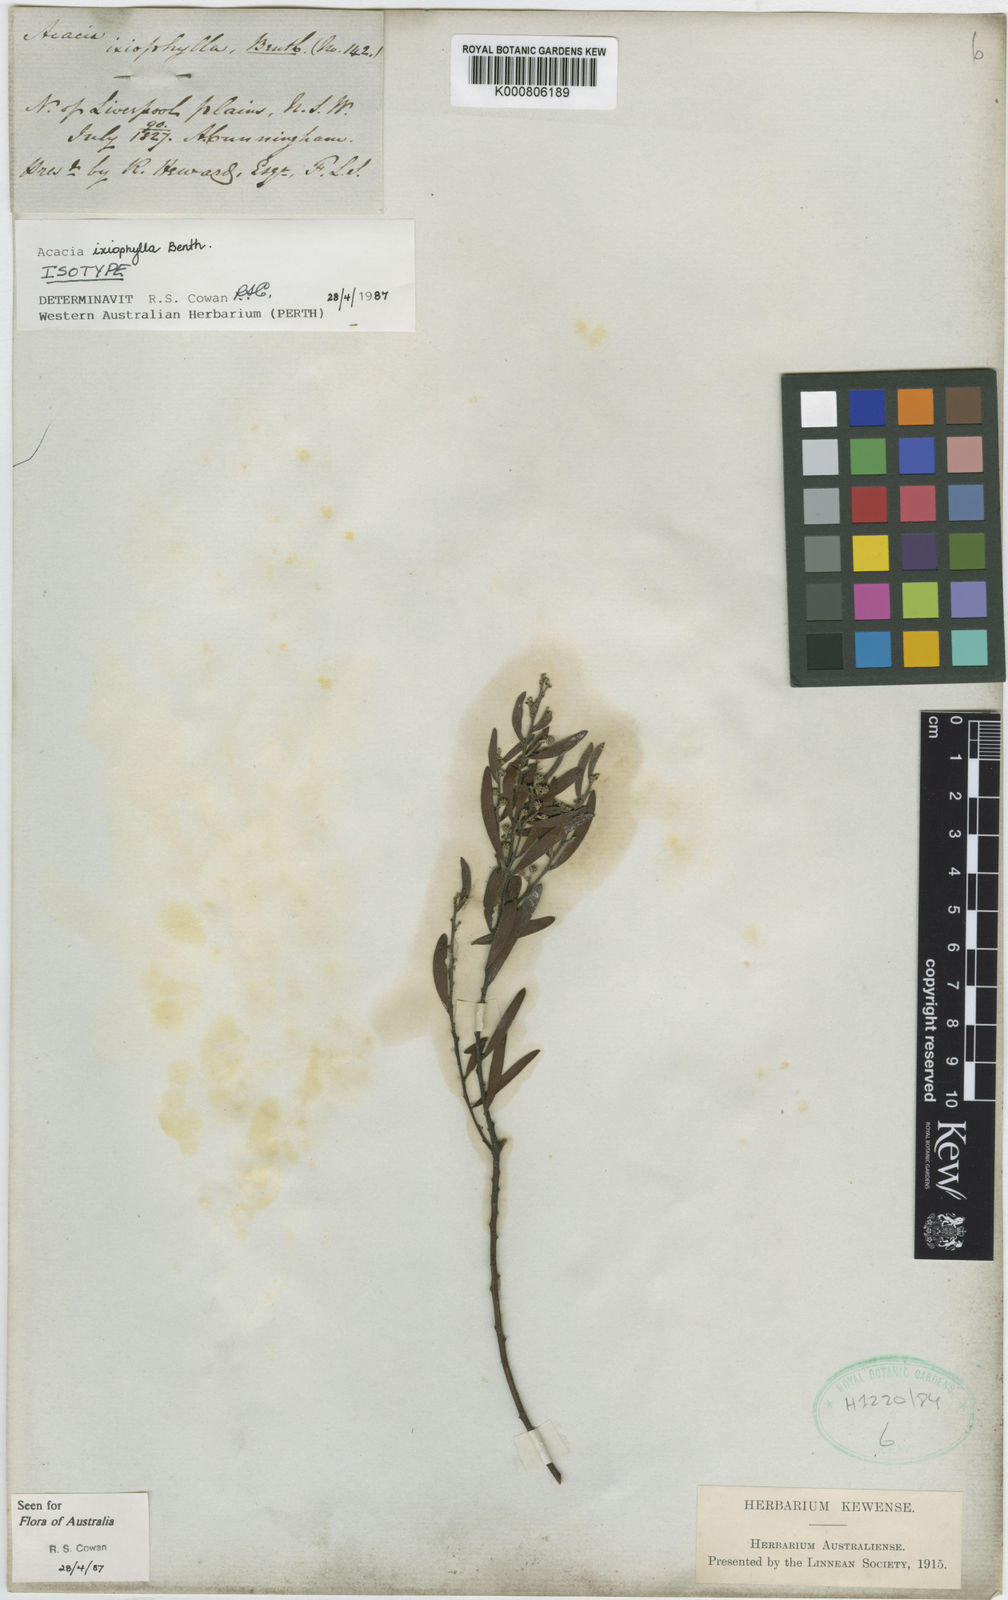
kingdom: Plantae
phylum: Tracheophyta
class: Magnoliopsida
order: Fabales
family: Fabaceae
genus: Acacia
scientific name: Acacia ixiophylla
